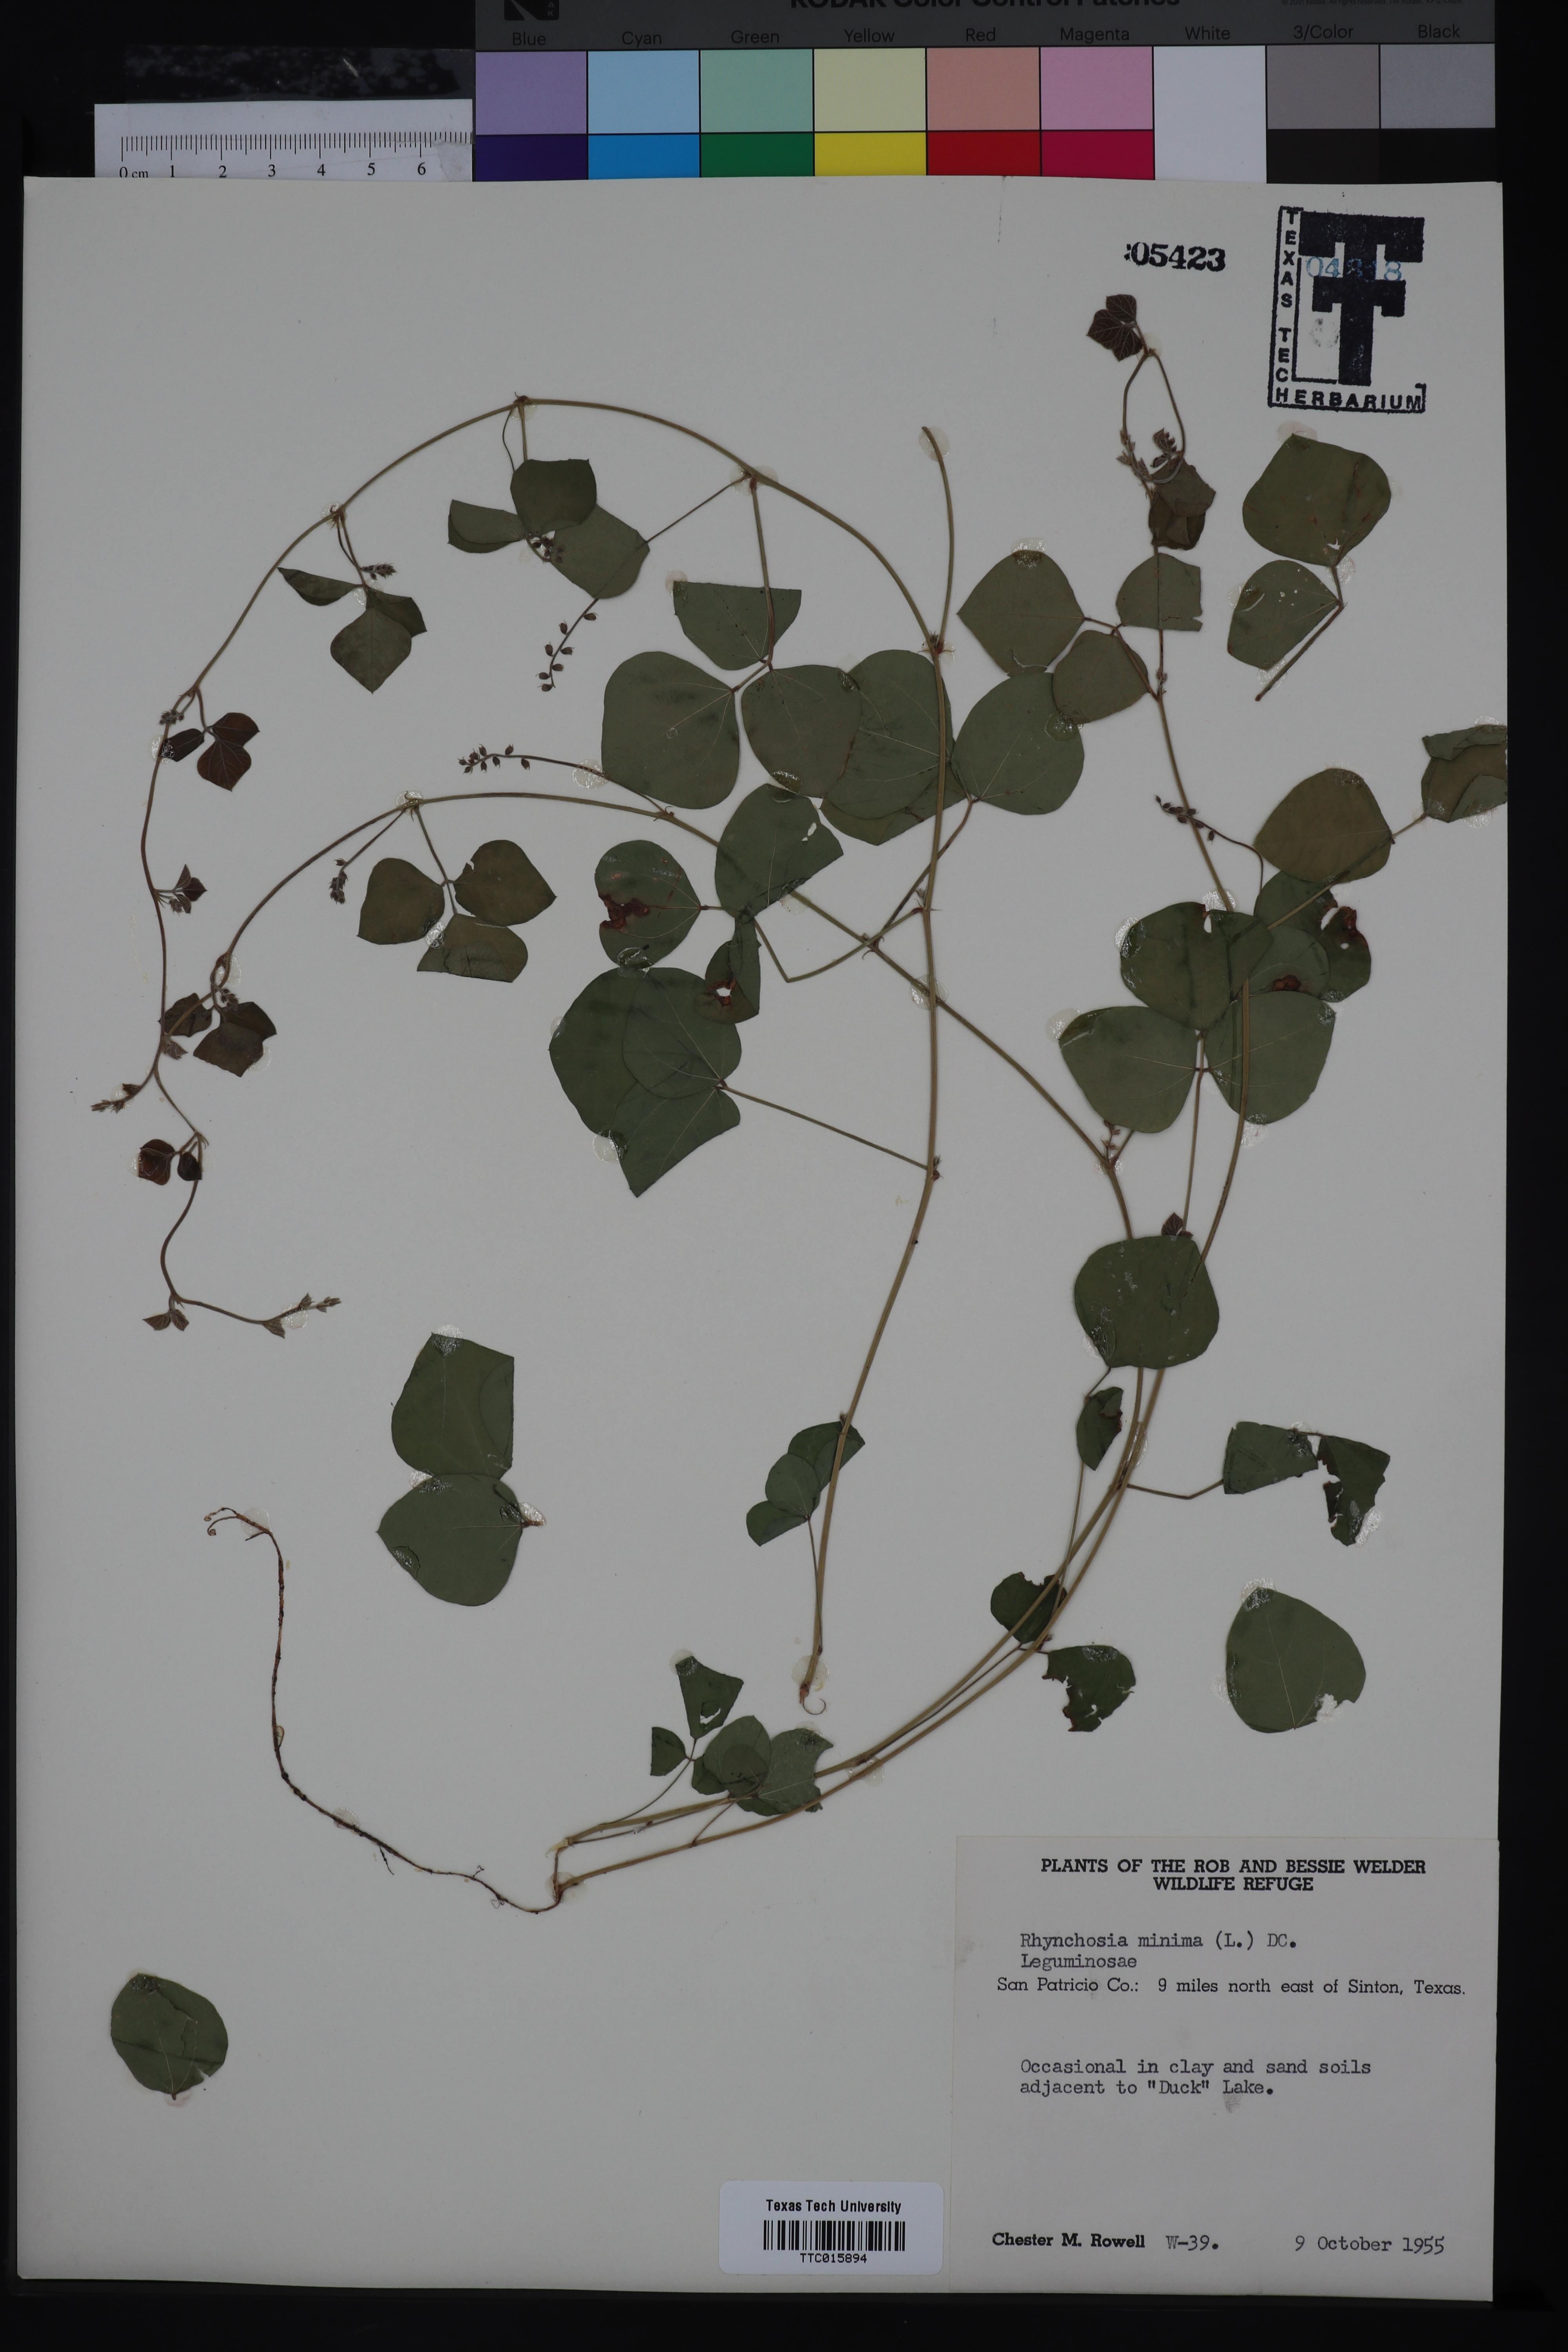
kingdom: Plantae
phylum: Tracheophyta
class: Magnoliopsida
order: Fabales
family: Fabaceae
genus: Rhynchosia
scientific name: Rhynchosia minima
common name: Least snoutbean
